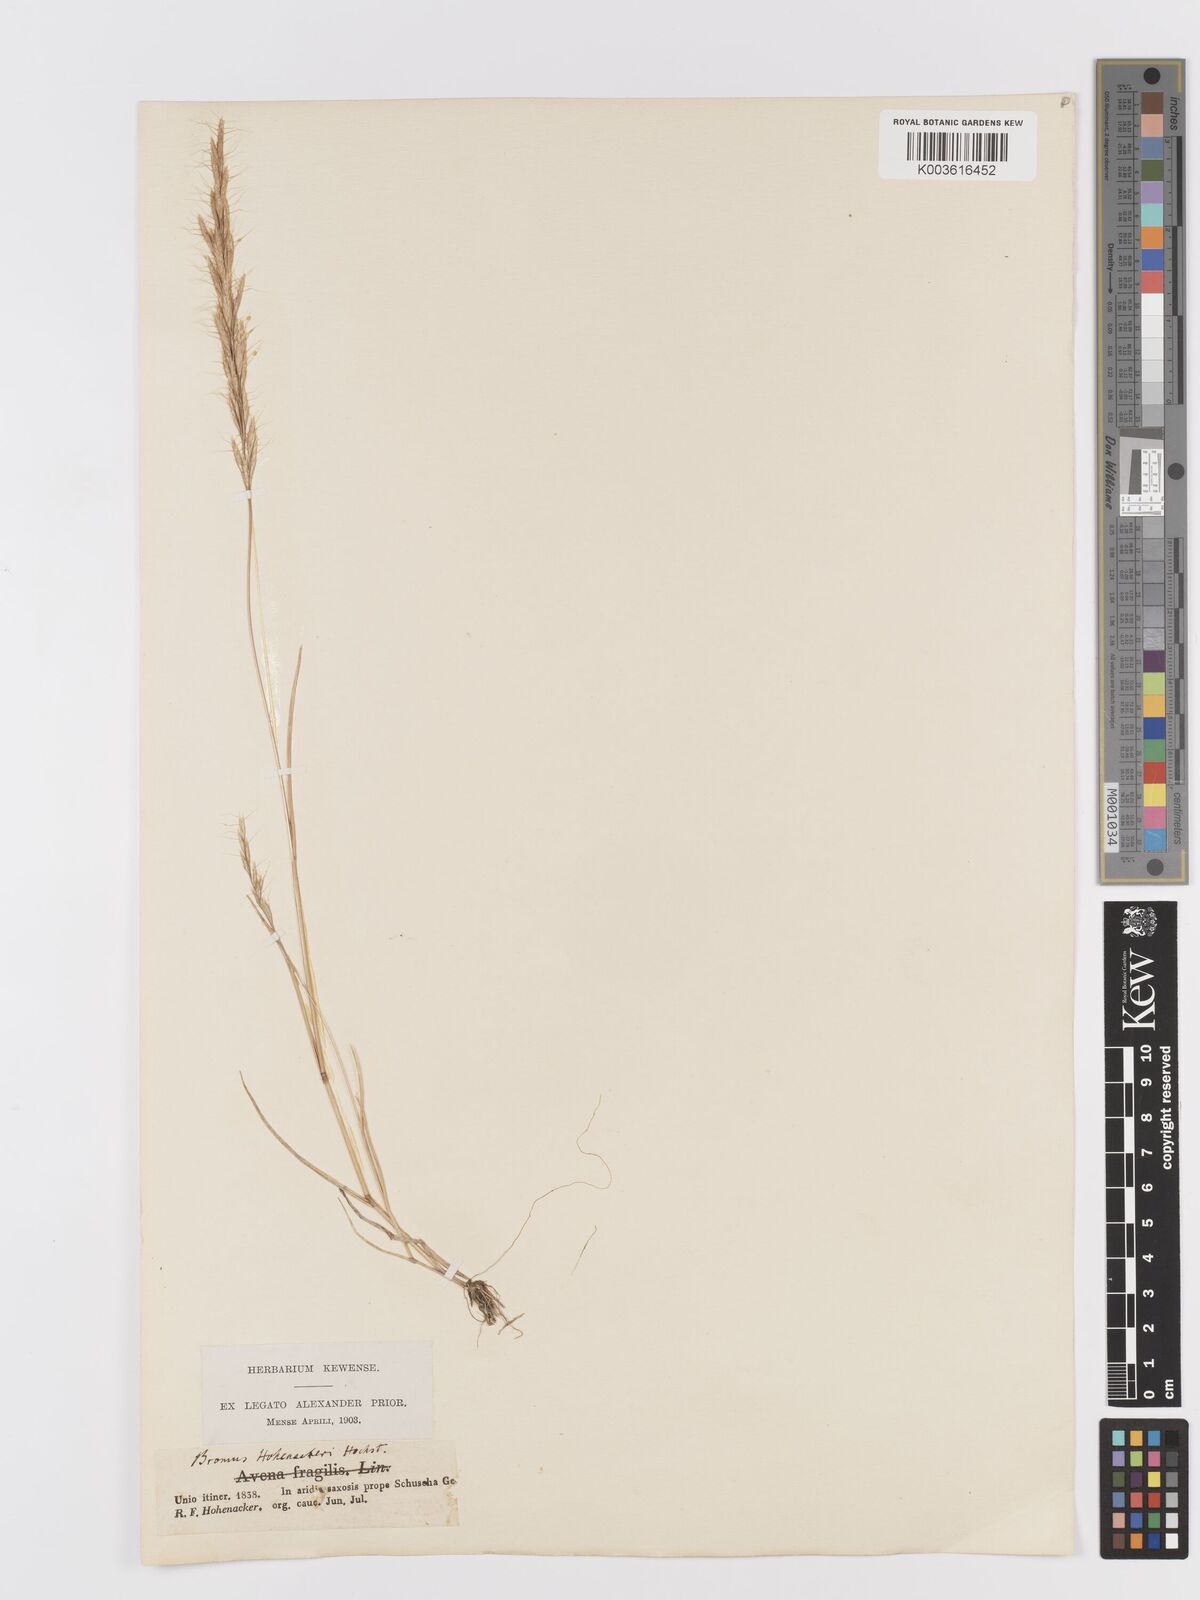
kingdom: Plantae
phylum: Tracheophyta
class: Liliopsida
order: Poales
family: Poaceae
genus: Ventenata
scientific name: Ventenata macra
